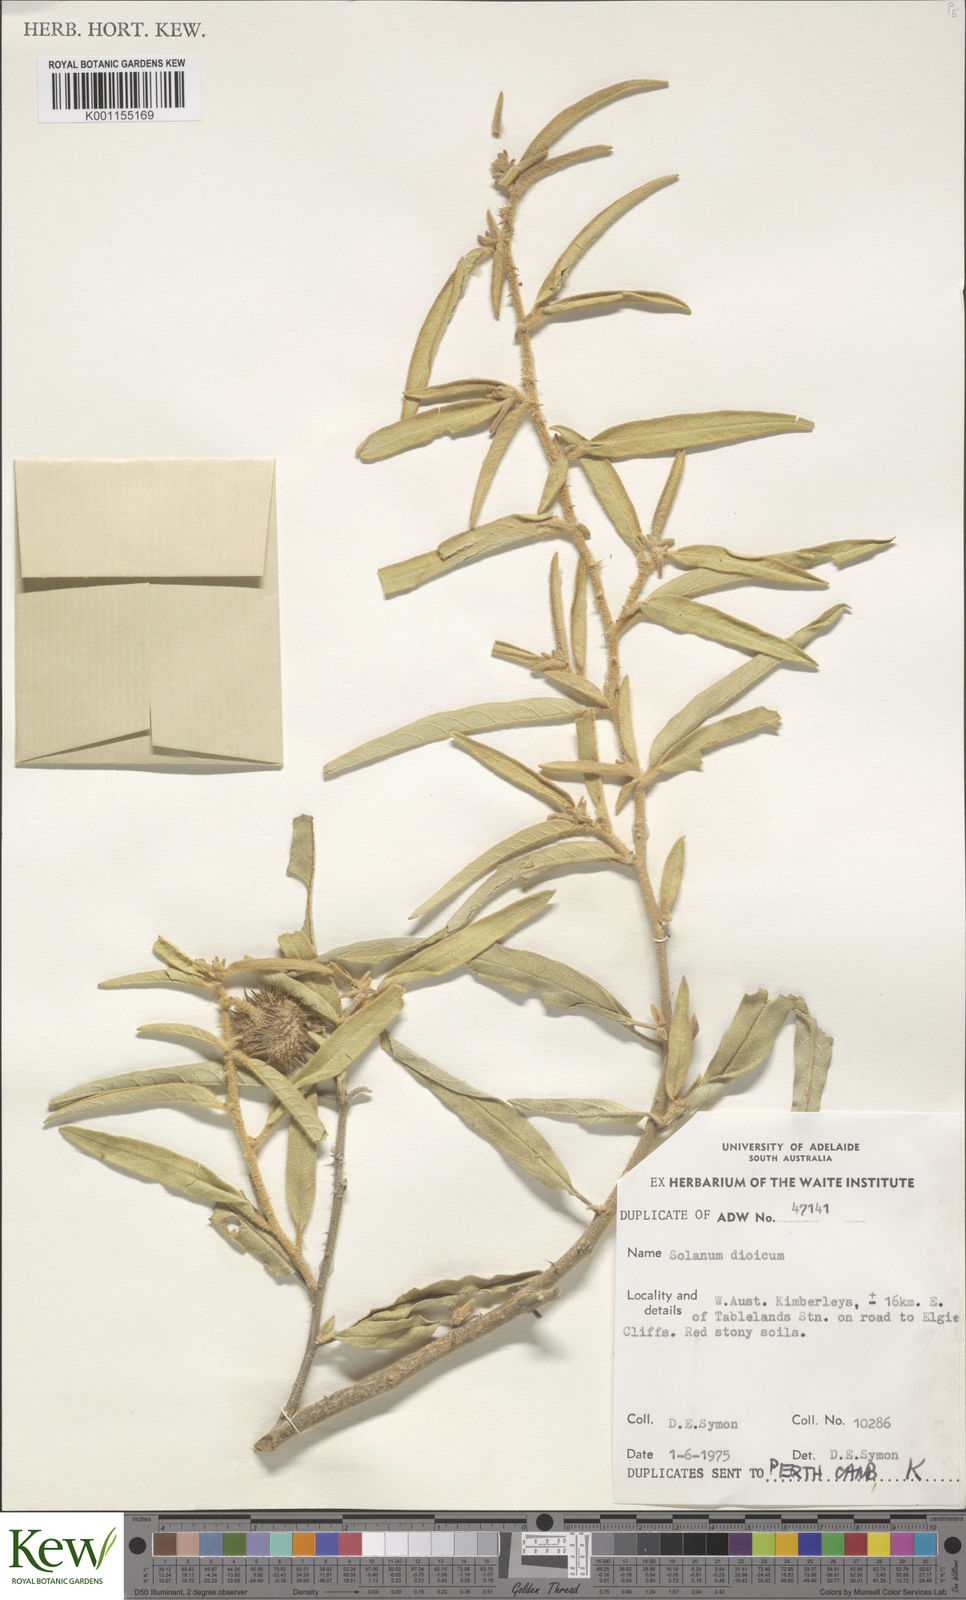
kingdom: Plantae
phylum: Tracheophyta
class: Magnoliopsida
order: Solanales
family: Solanaceae
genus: Solanum
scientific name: Solanum dioicum
